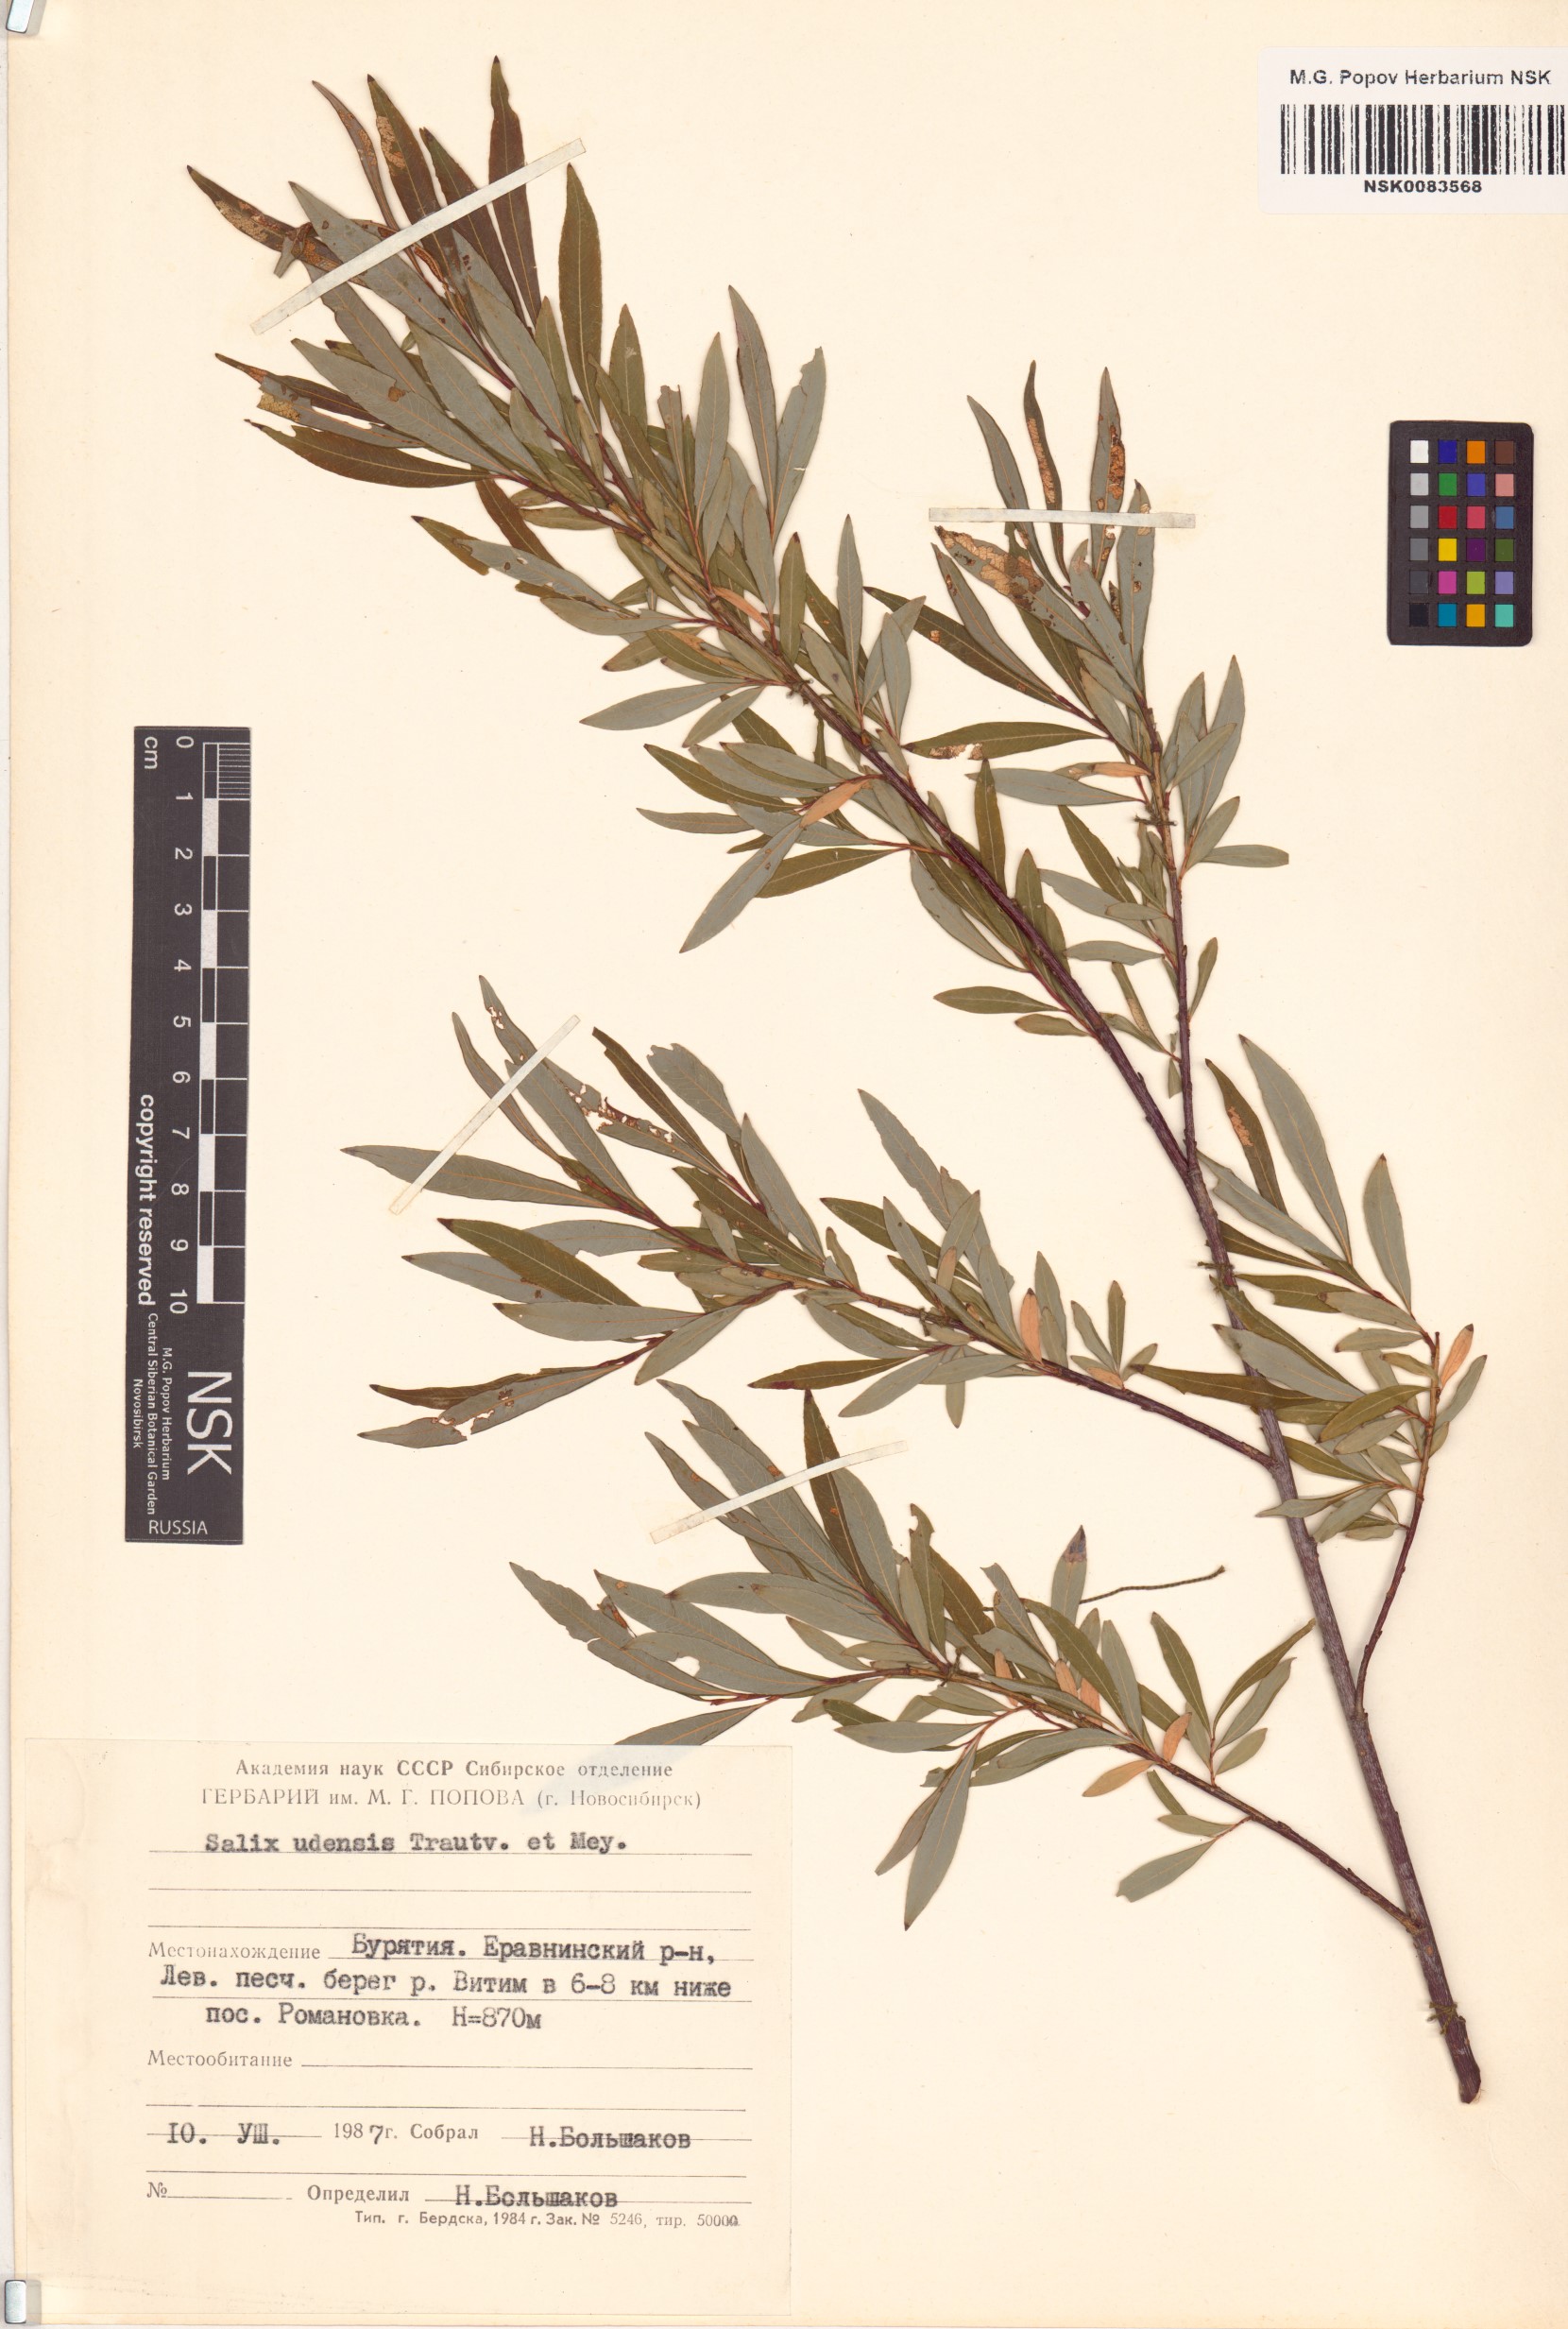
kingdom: Plantae
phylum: Tracheophyta
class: Magnoliopsida
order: Malpighiales
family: Salicaceae
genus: Salix
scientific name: Salix udensis
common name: Sachalin willow
